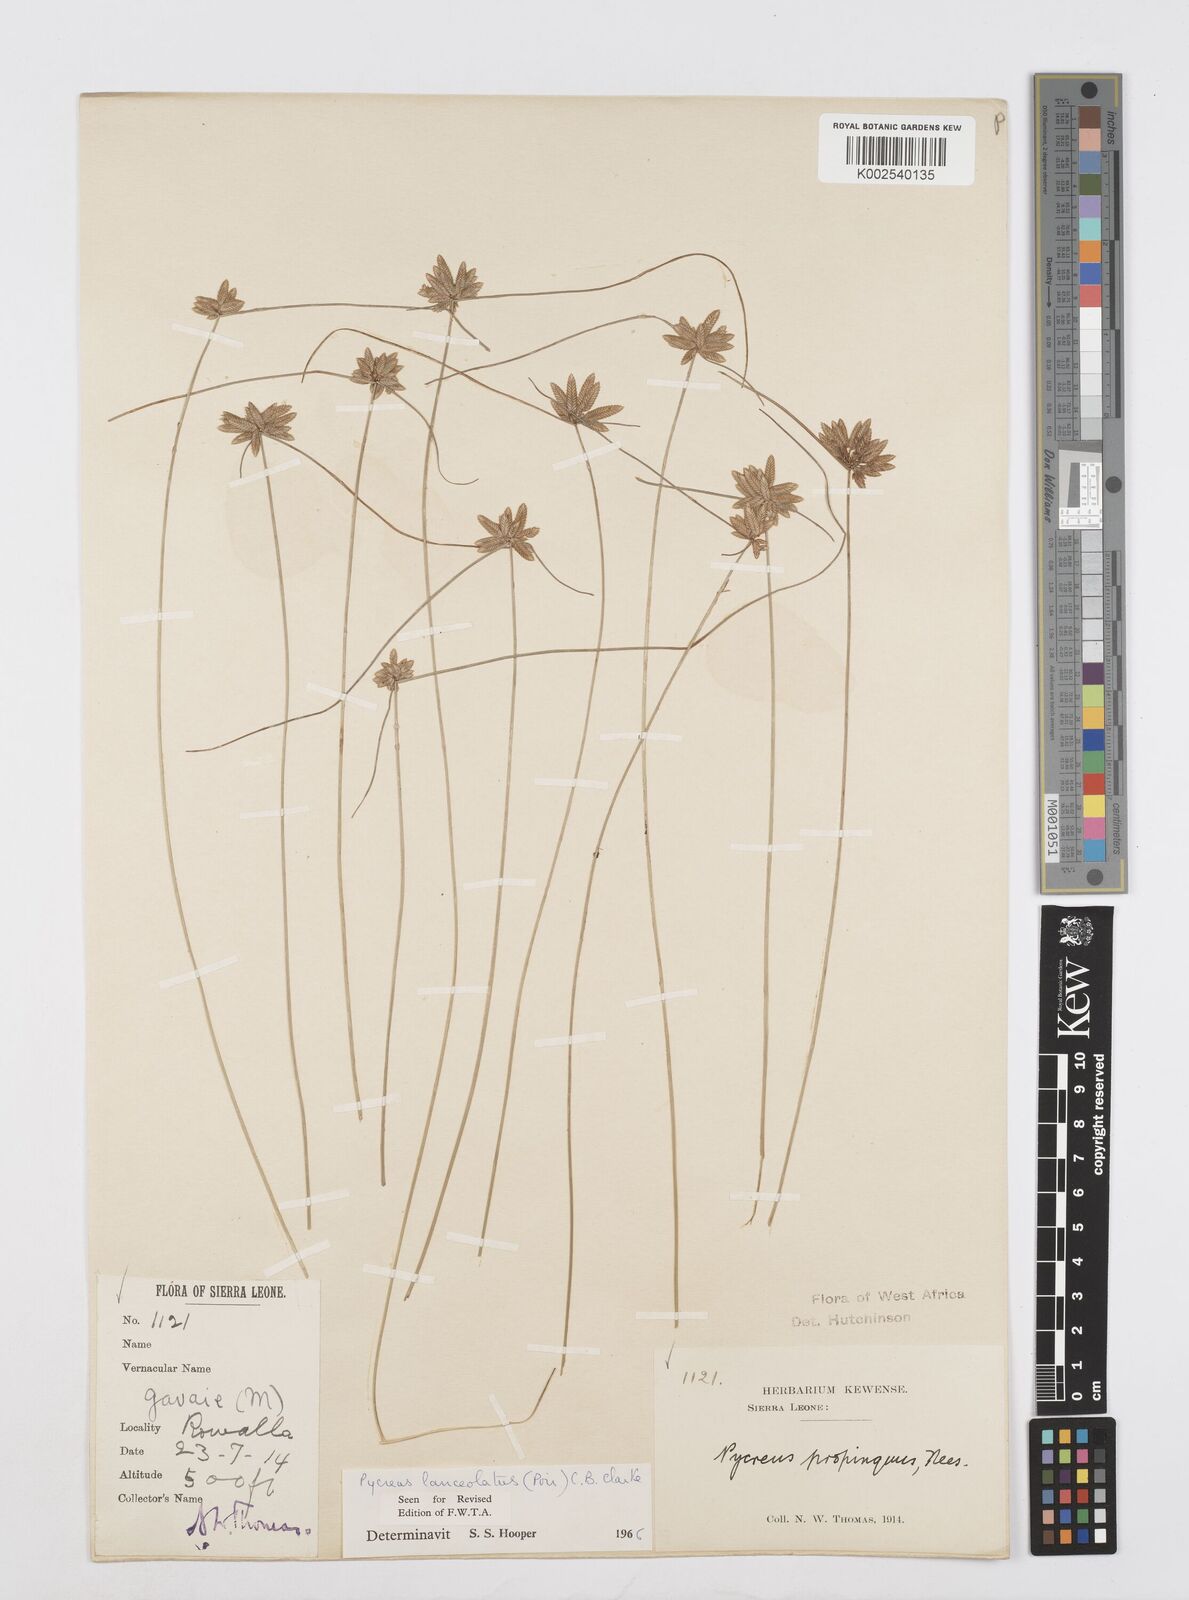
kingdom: Plantae
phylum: Tracheophyta
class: Liliopsida
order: Poales
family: Cyperaceae
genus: Cyperus
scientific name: Cyperus
